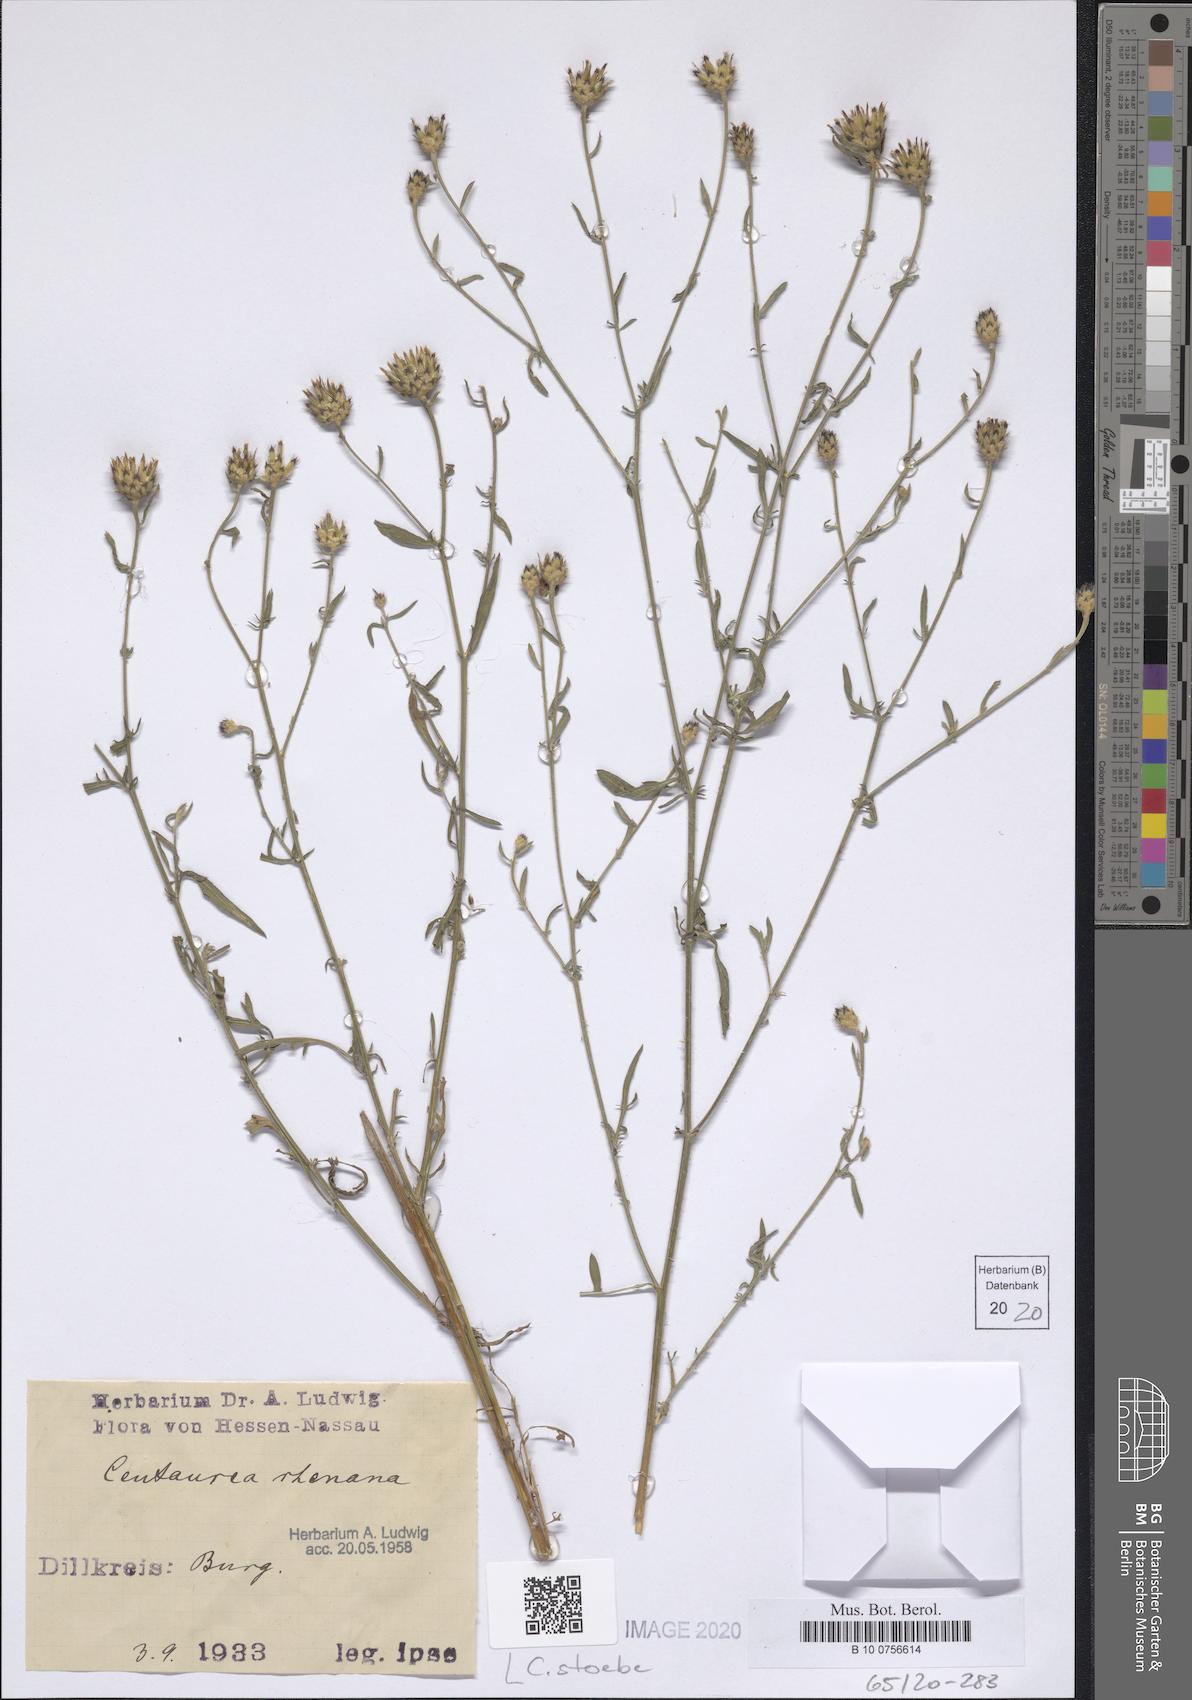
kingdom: Plantae
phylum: Tracheophyta
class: Magnoliopsida
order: Asterales
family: Asteraceae
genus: Centaurea
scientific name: Centaurea stoebe
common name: Spotted knapweed
